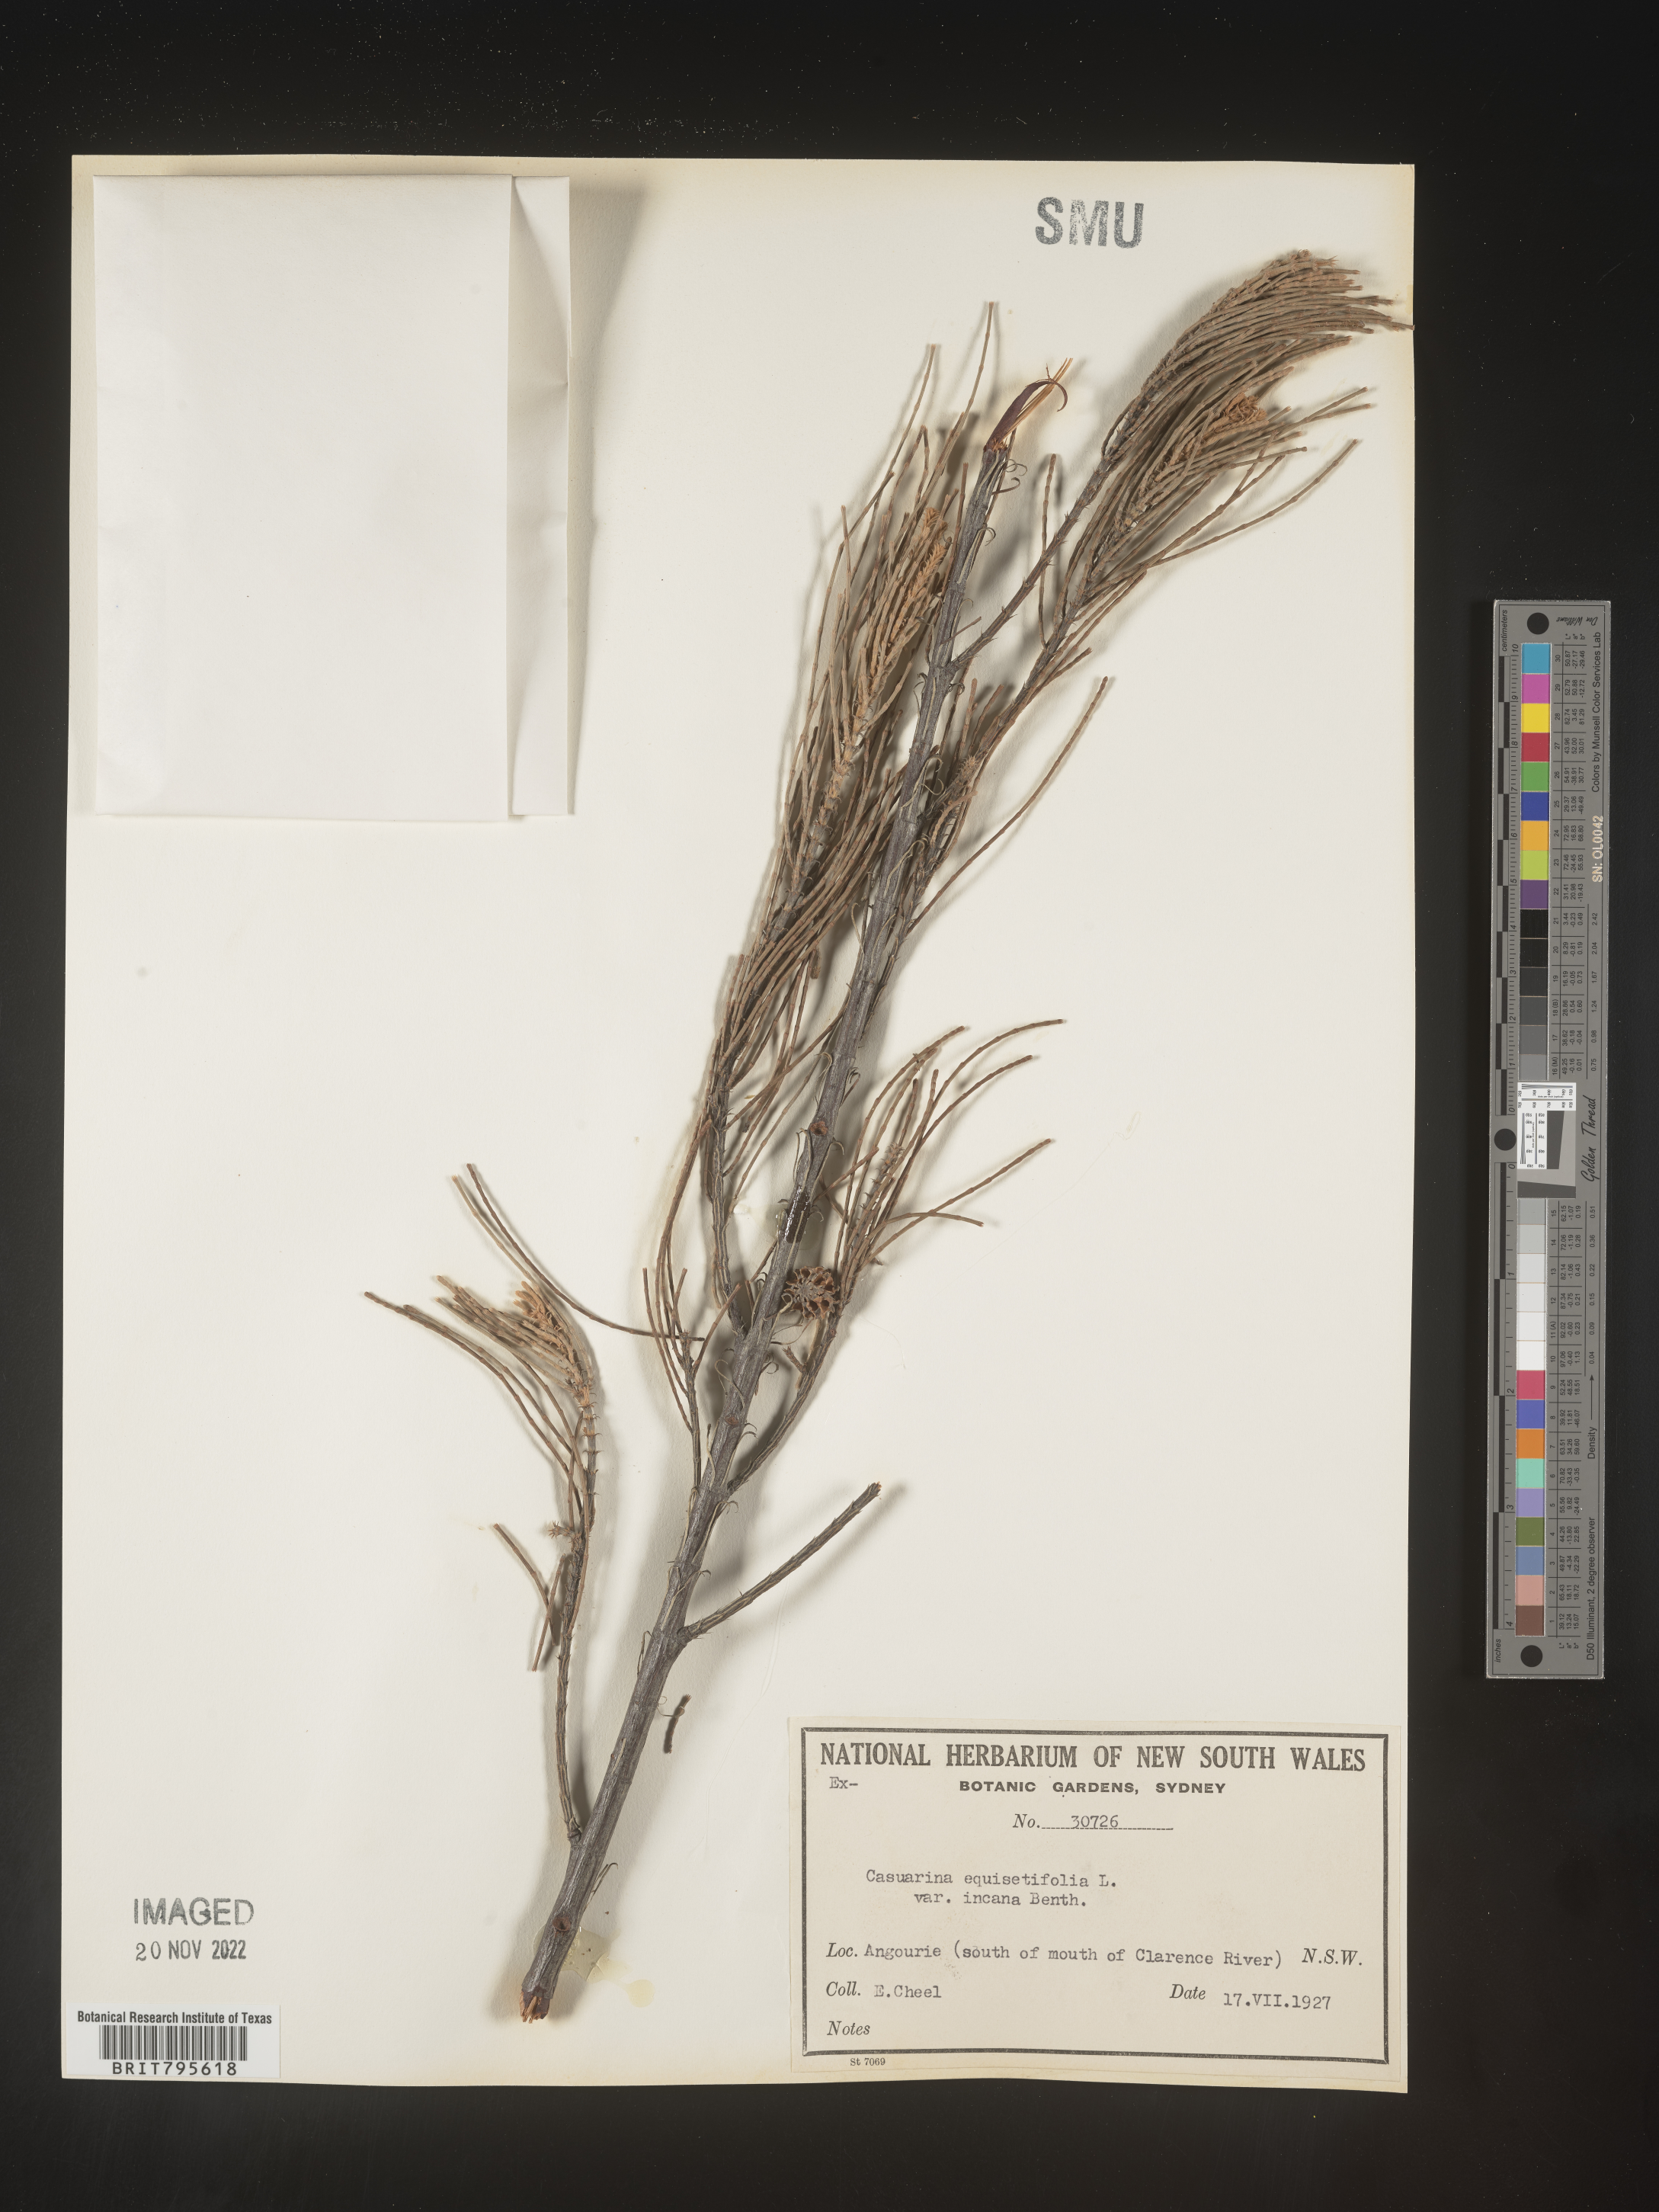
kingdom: Plantae
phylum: Tracheophyta
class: Magnoliopsida
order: Fagales
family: Casuarinaceae
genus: Casuarina
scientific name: Casuarina
